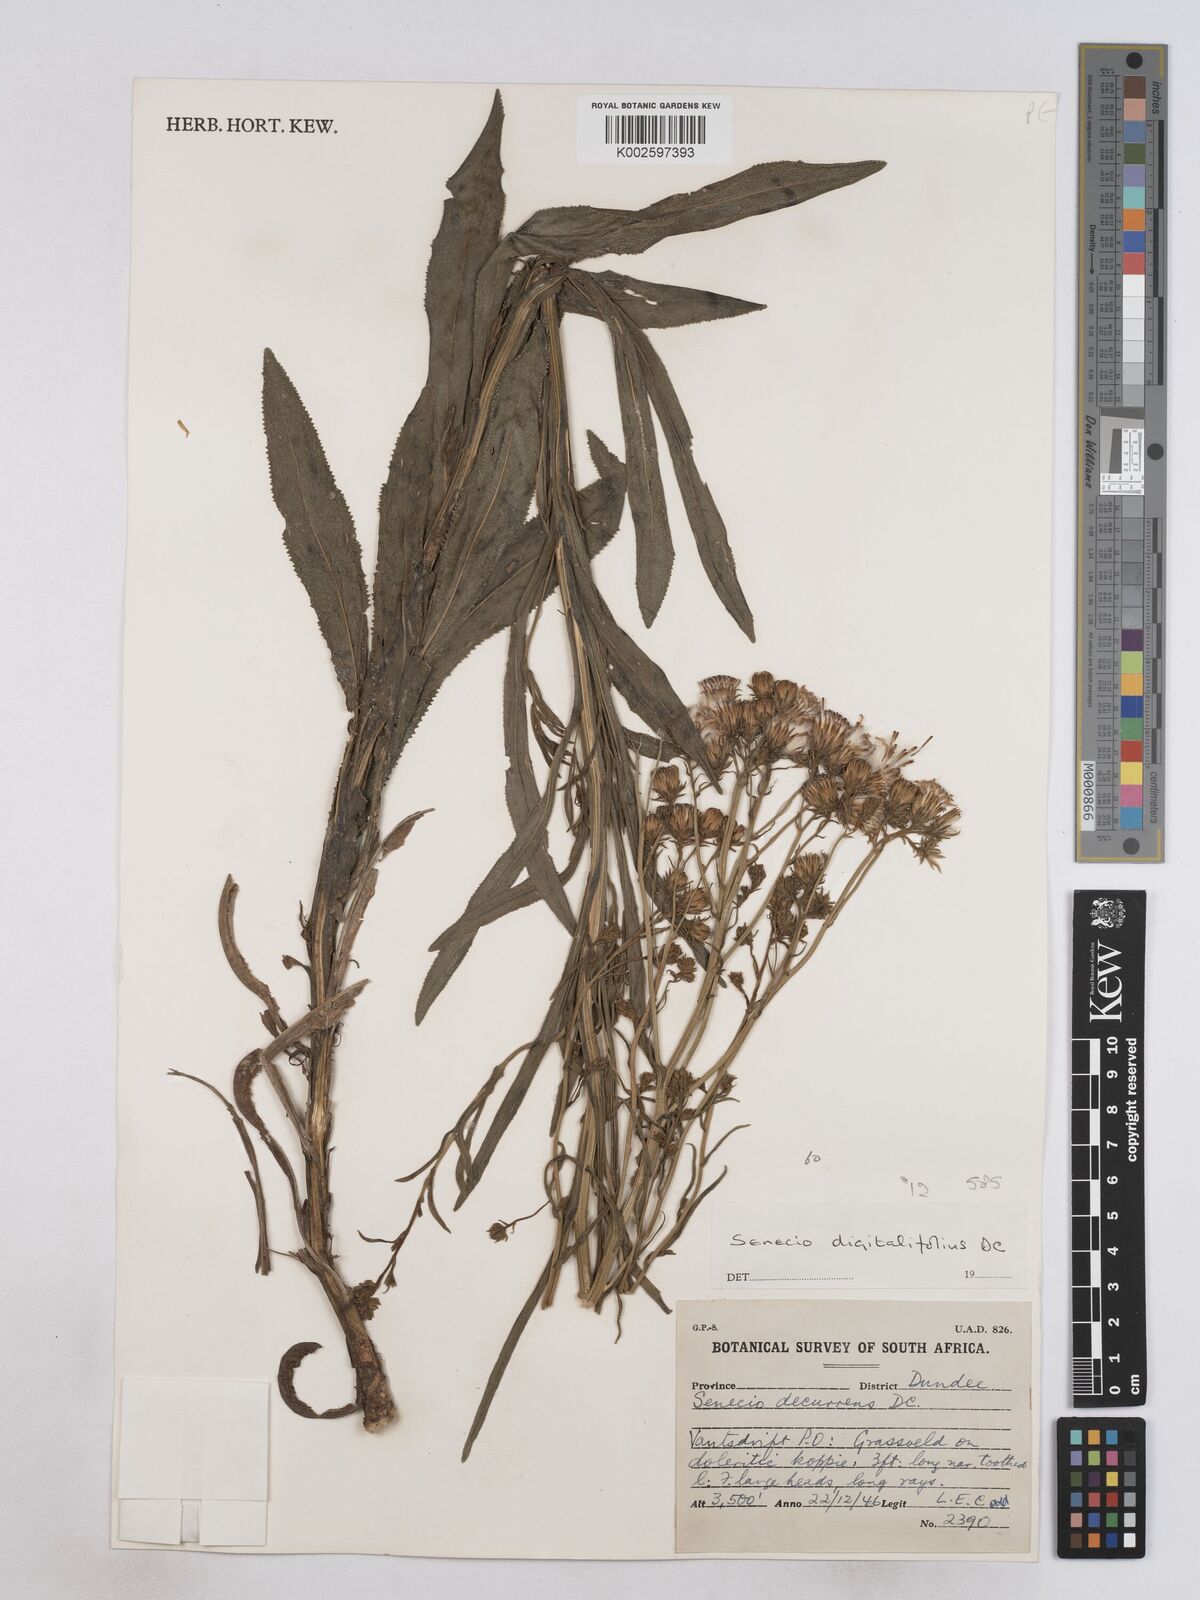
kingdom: Plantae
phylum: Tracheophyta
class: Magnoliopsida
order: Asterales
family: Asteraceae
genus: Senecio
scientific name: Senecio digitalifolius
